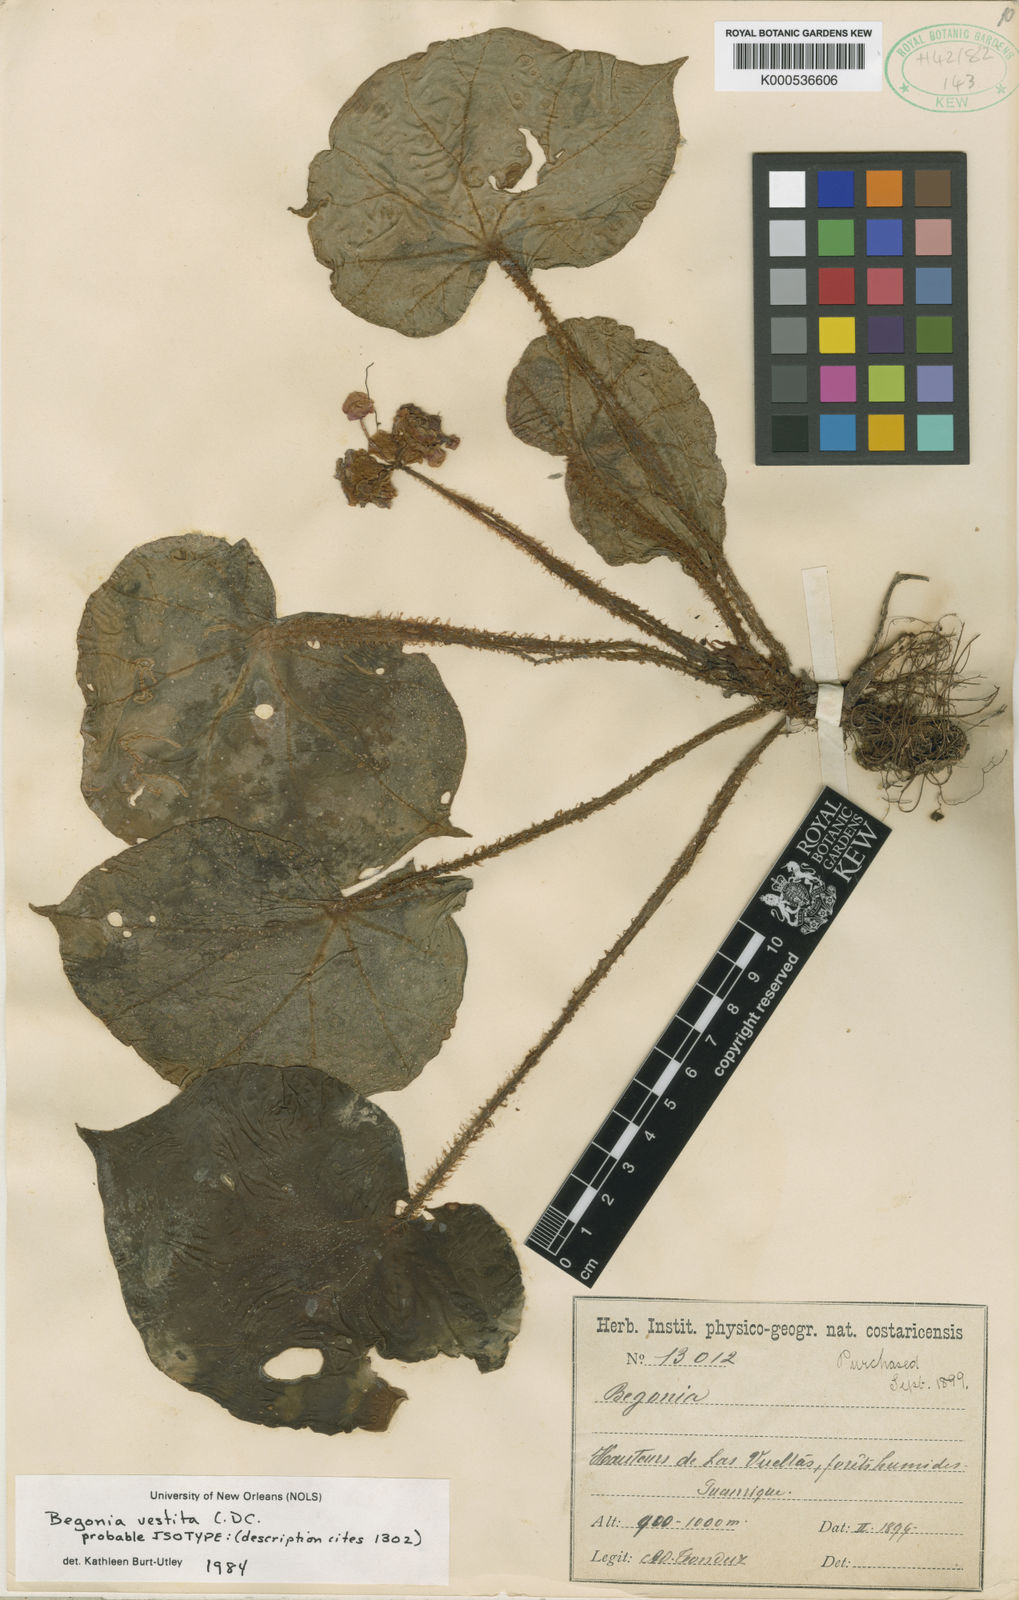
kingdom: Plantae
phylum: Tracheophyta
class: Magnoliopsida
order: Cucurbitales
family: Begoniaceae
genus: Begonia
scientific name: Begonia vestita
